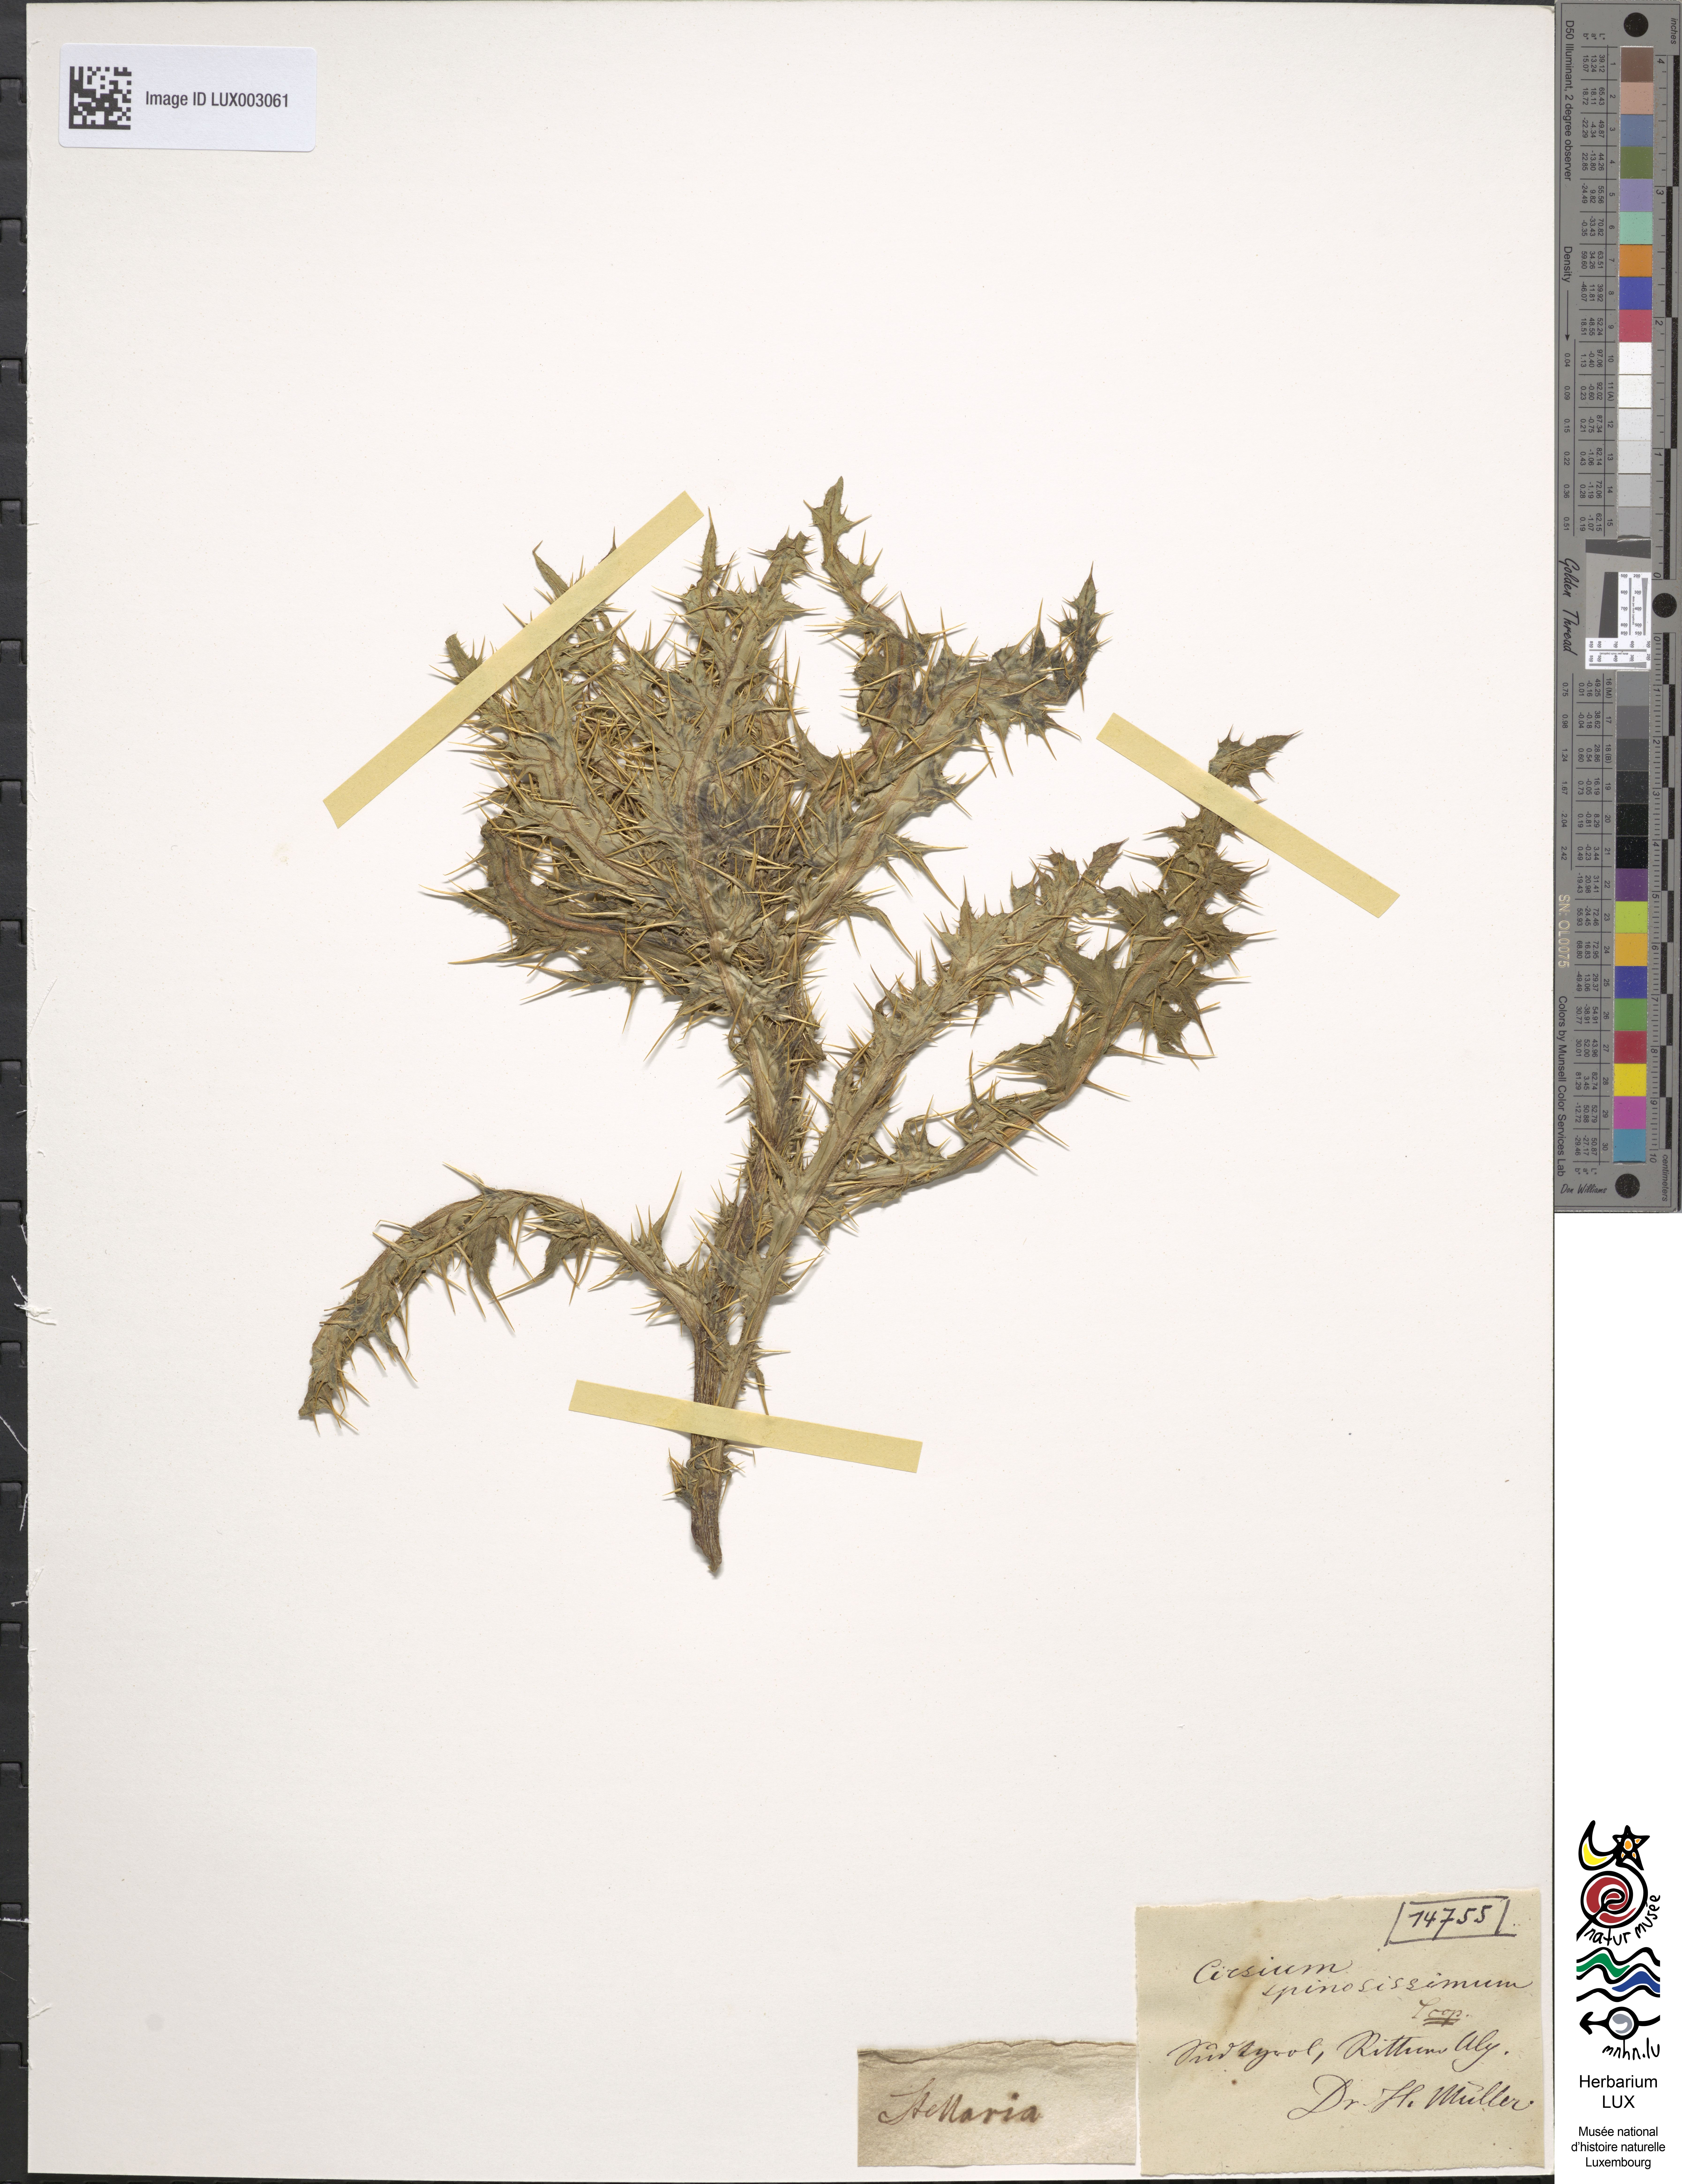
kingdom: Plantae
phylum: Tracheophyta
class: Magnoliopsida
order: Asterales
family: Asteraceae
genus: Cirsium
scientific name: Cirsium spinosissimum
